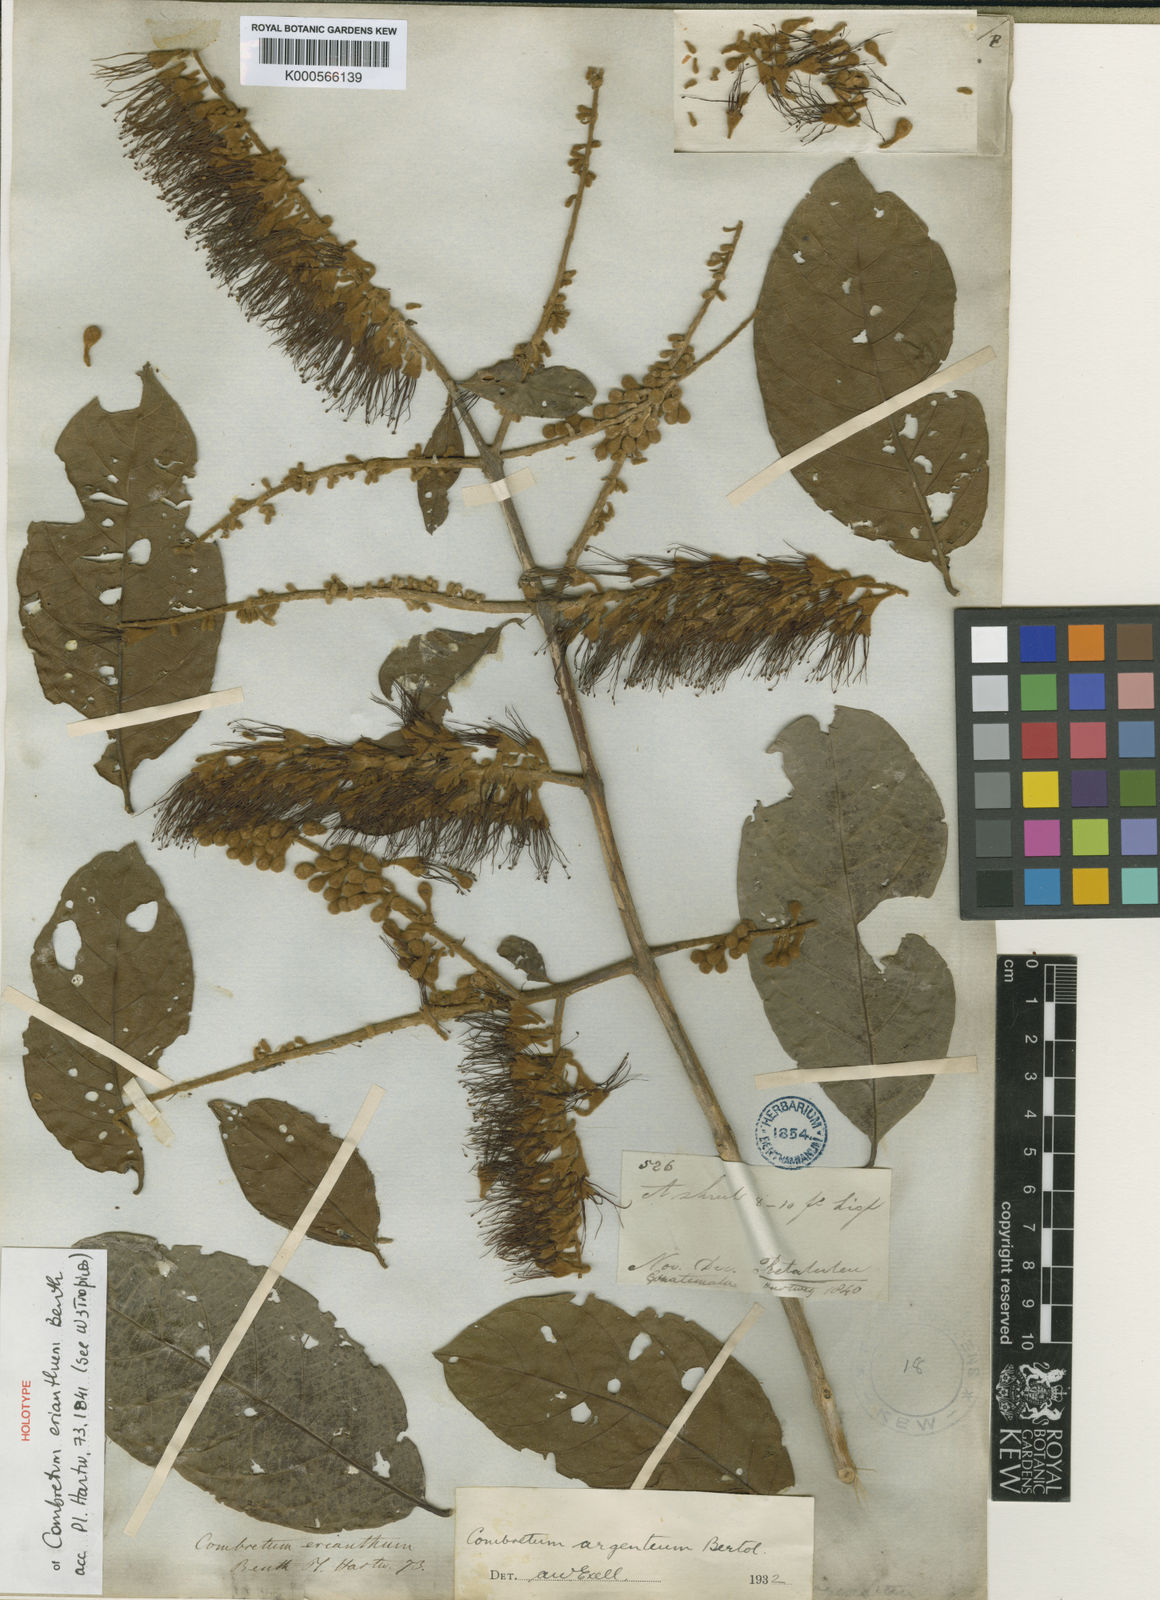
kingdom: Plantae
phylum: Tracheophyta
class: Magnoliopsida
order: Myrtales
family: Combretaceae
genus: Combretum
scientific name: Combretum argenteum
